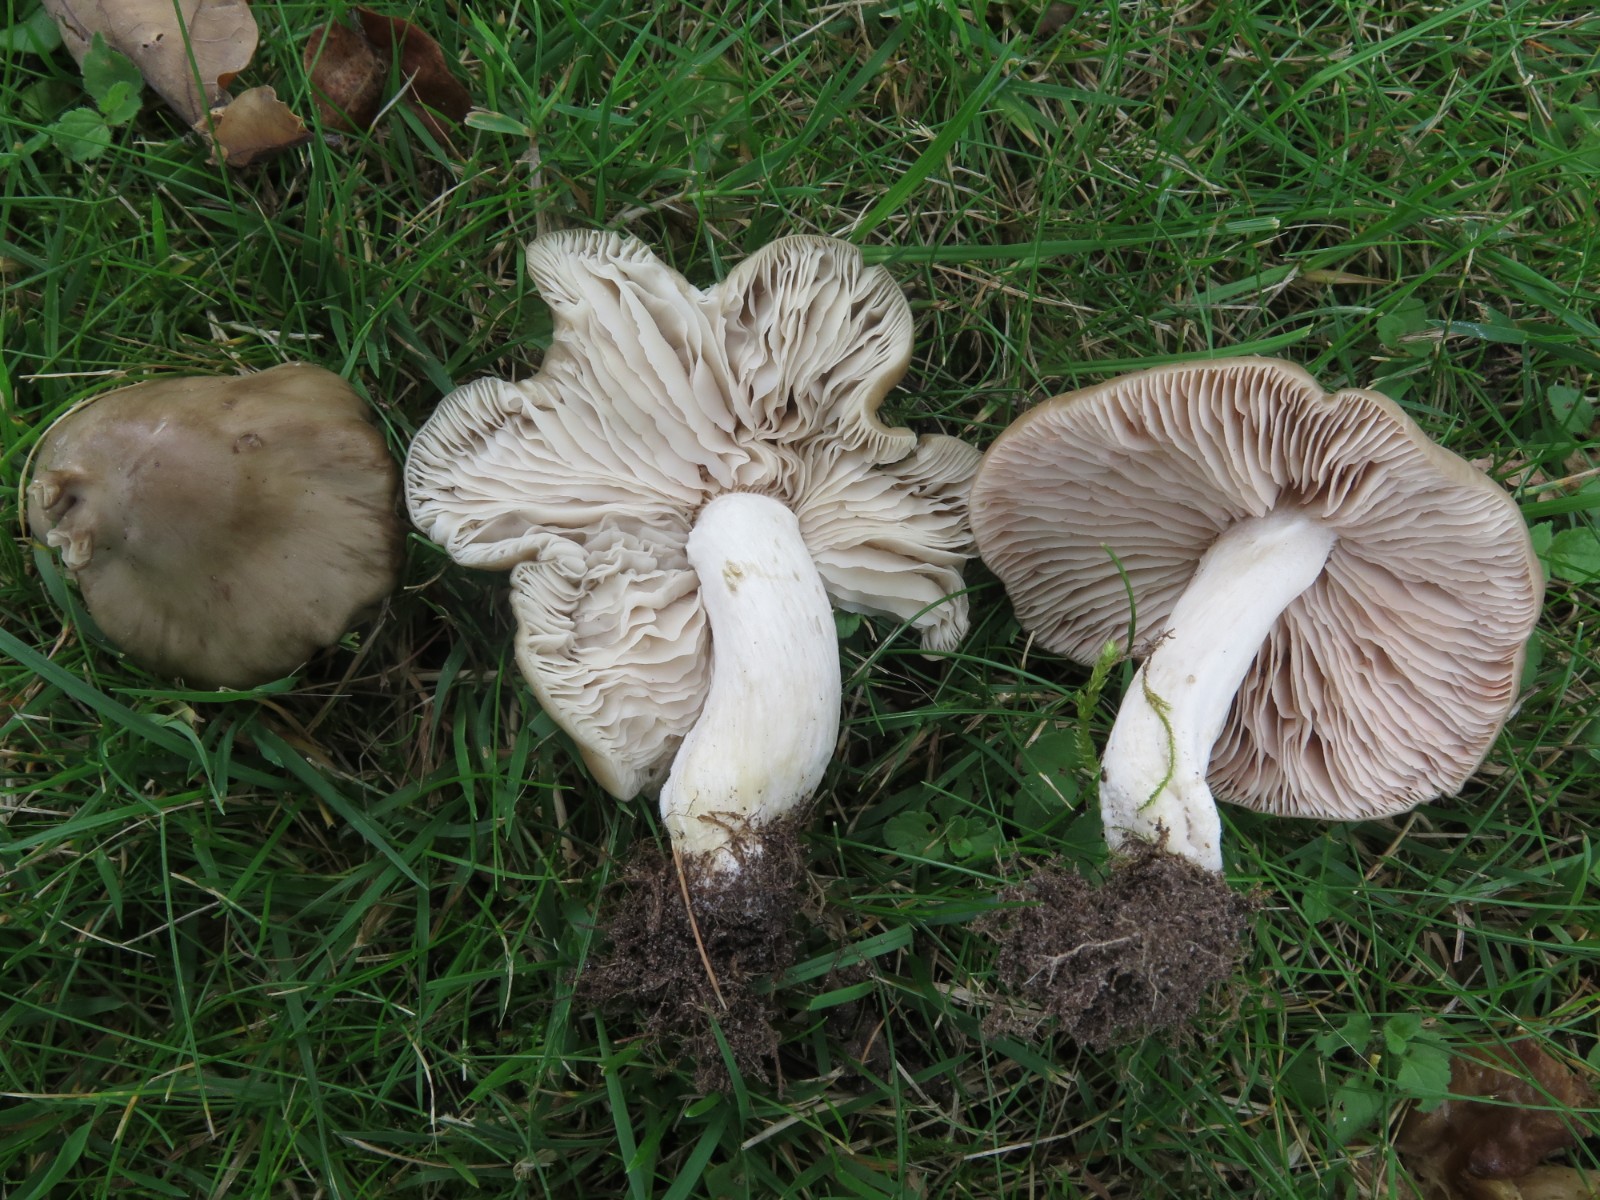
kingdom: Fungi
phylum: Basidiomycota
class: Agaricomycetes
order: Agaricales
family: Entolomataceae
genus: Entoloma
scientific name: Entoloma lividoalbum
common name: lysstokket rødblad
